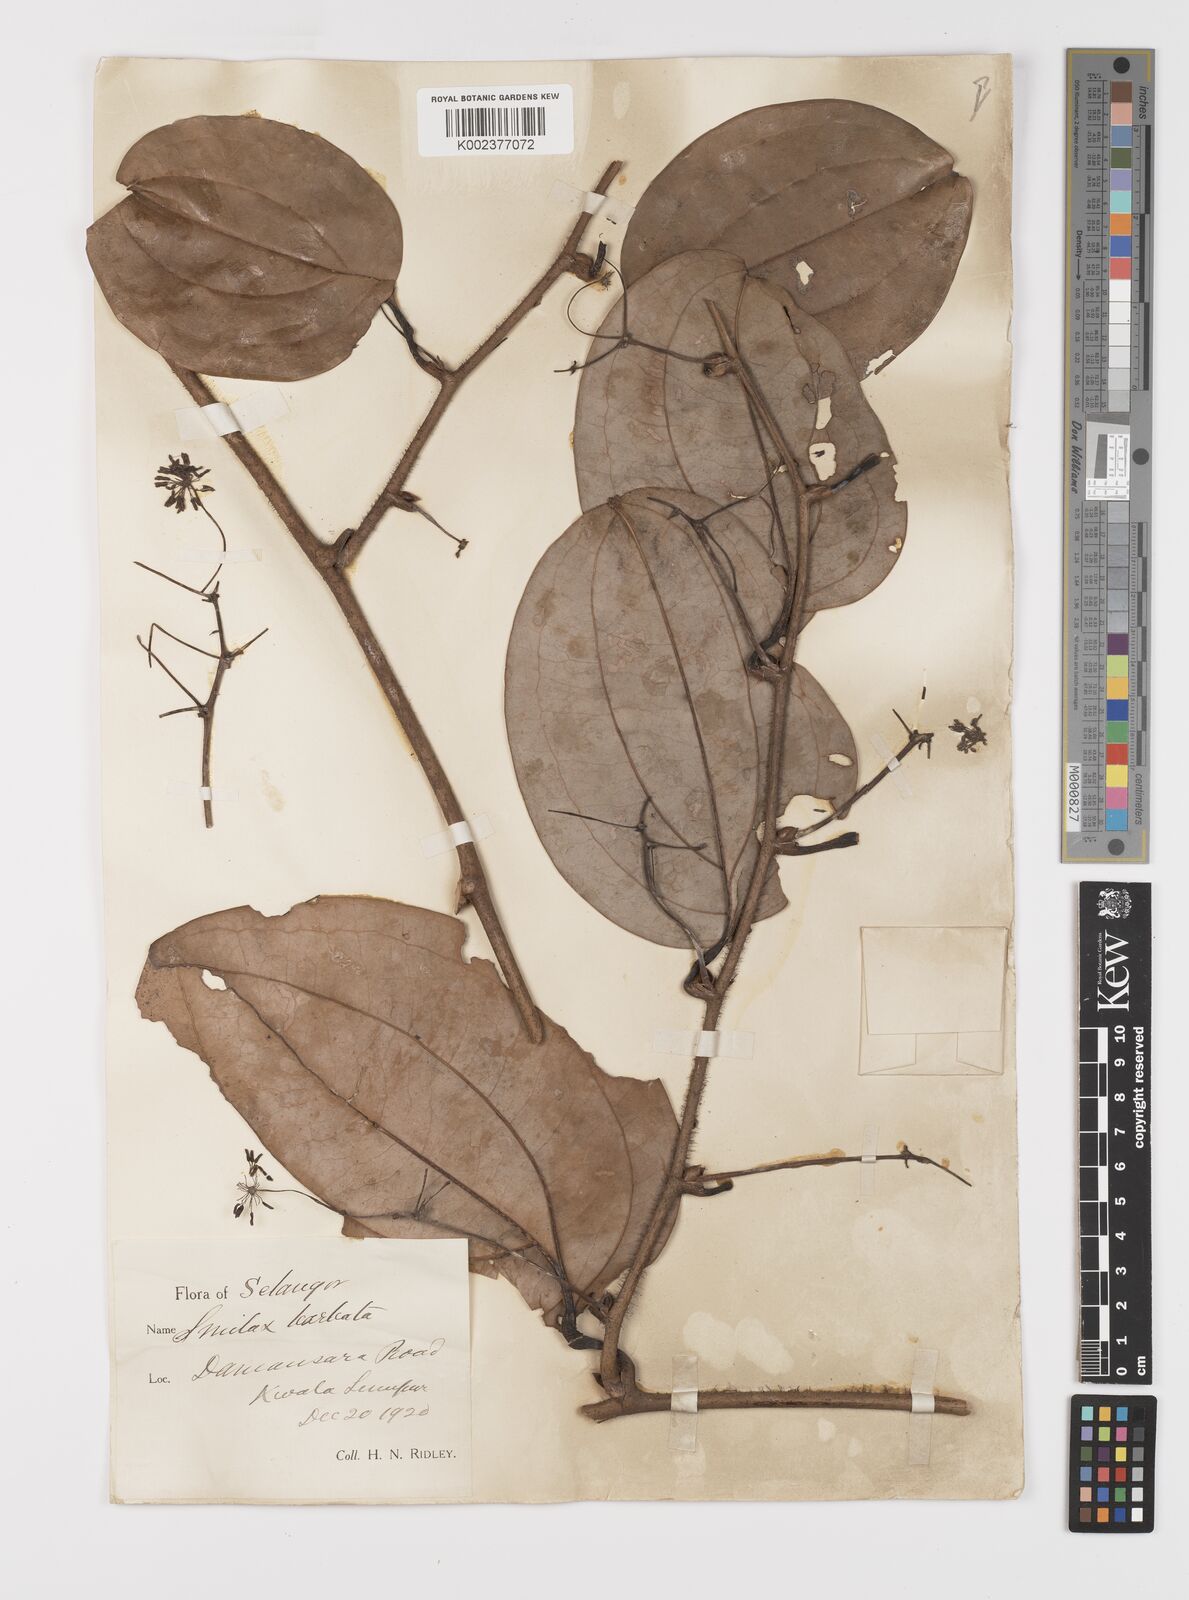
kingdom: Plantae
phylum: Tracheophyta
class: Liliopsida
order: Liliales
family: Smilacaceae
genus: Smilax
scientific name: Smilax bracteata
